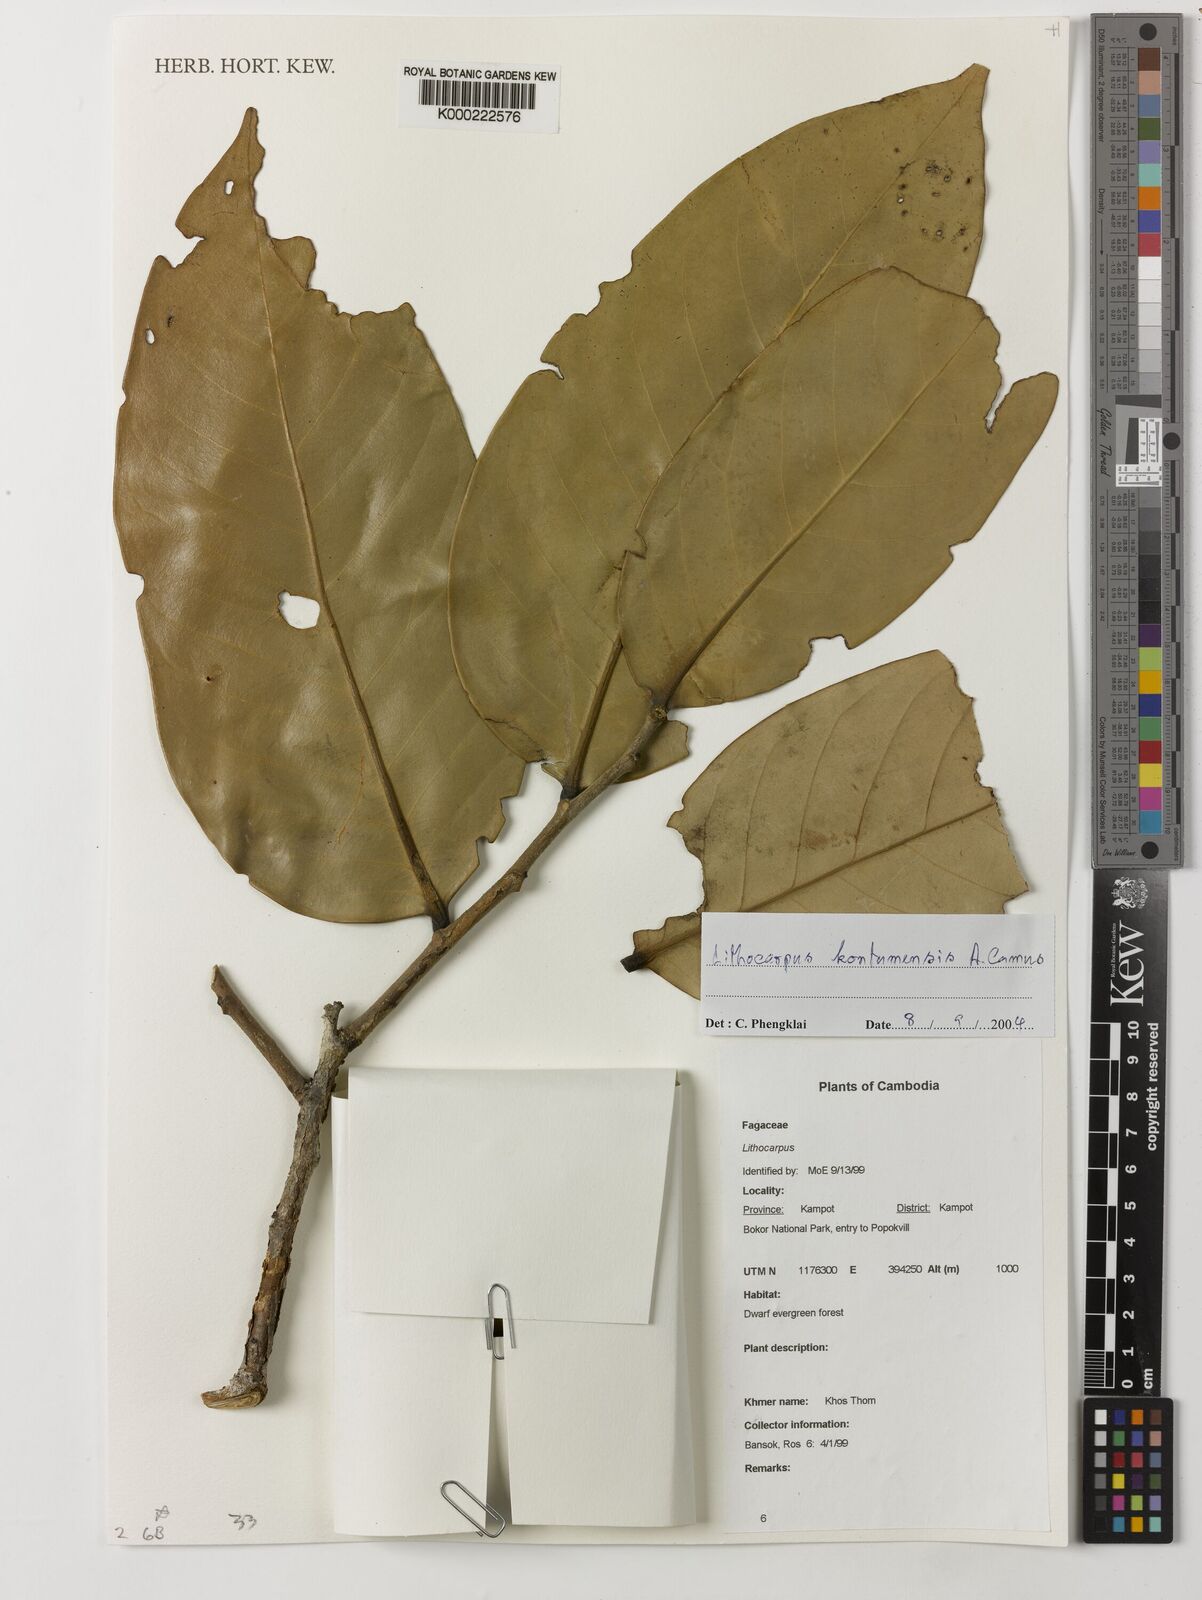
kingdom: Plantae
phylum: Tracheophyta
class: Magnoliopsida
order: Fagales
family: Fagaceae
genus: Lithocarpus
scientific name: Lithocarpus kontumensis
